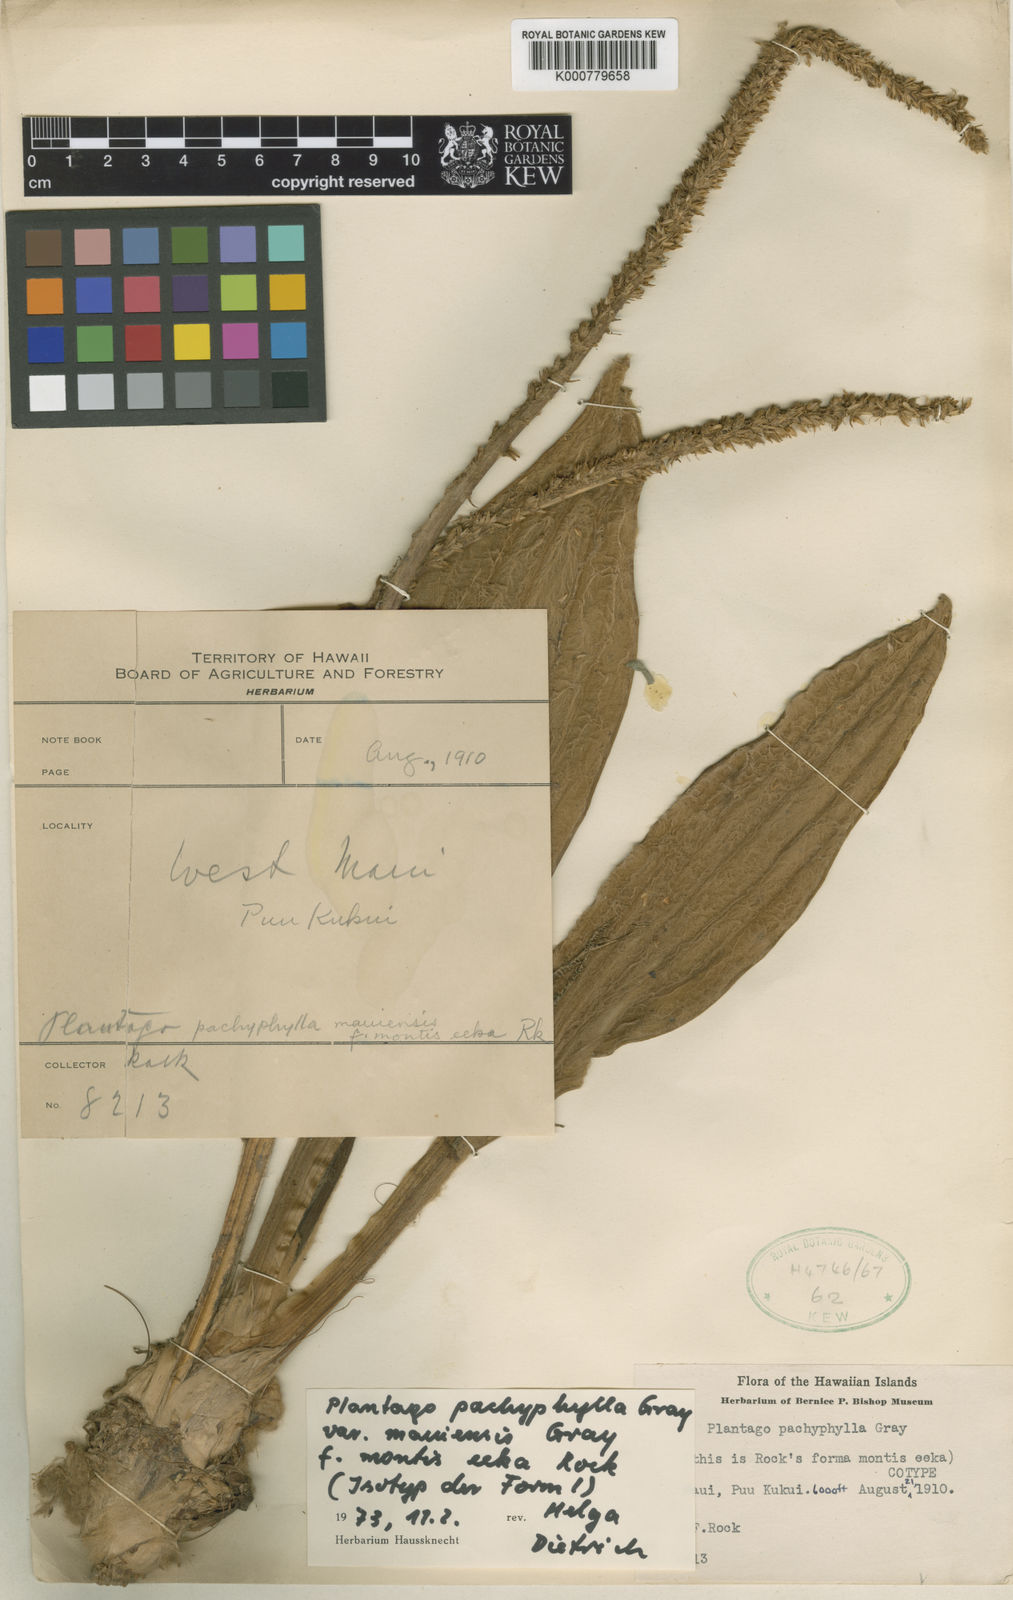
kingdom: Plantae
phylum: Tracheophyta
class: Magnoliopsida
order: Lamiales
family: Plantaginaceae
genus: Plantago
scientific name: Plantago pachyphylla
